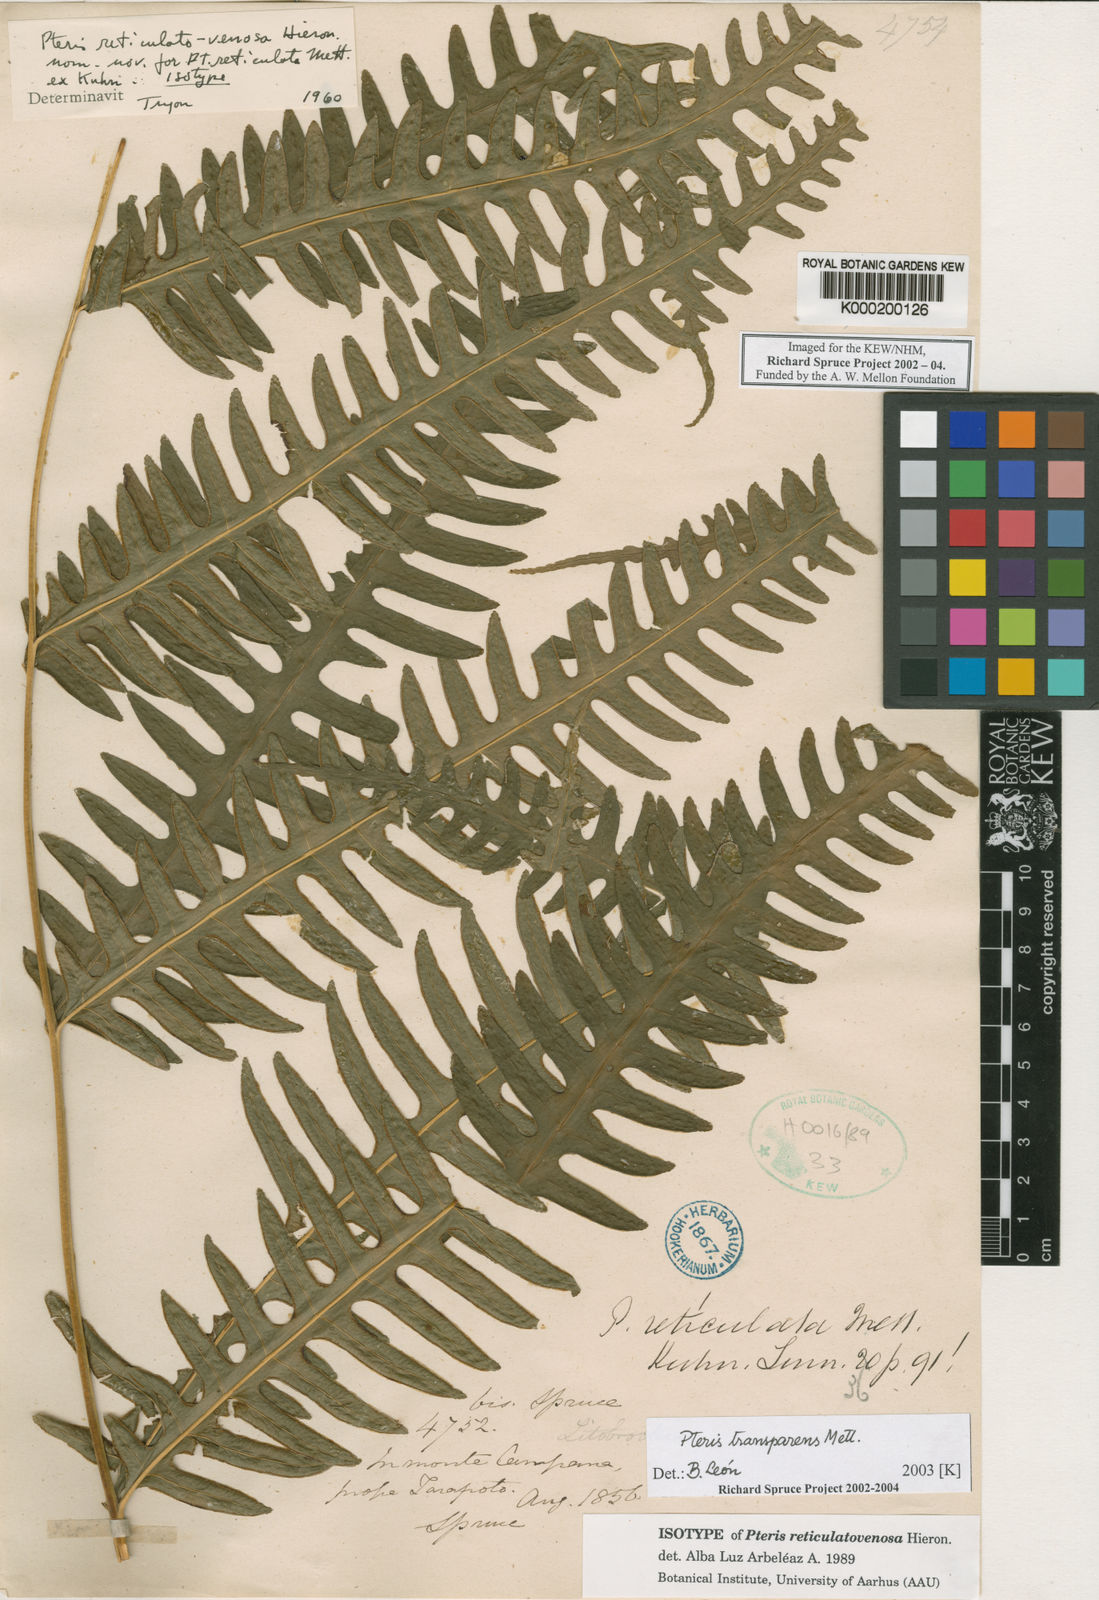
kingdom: Plantae
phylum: Tracheophyta
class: Polypodiopsida
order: Polypodiales
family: Pteridaceae
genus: Pteris
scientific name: Pteris transparens
